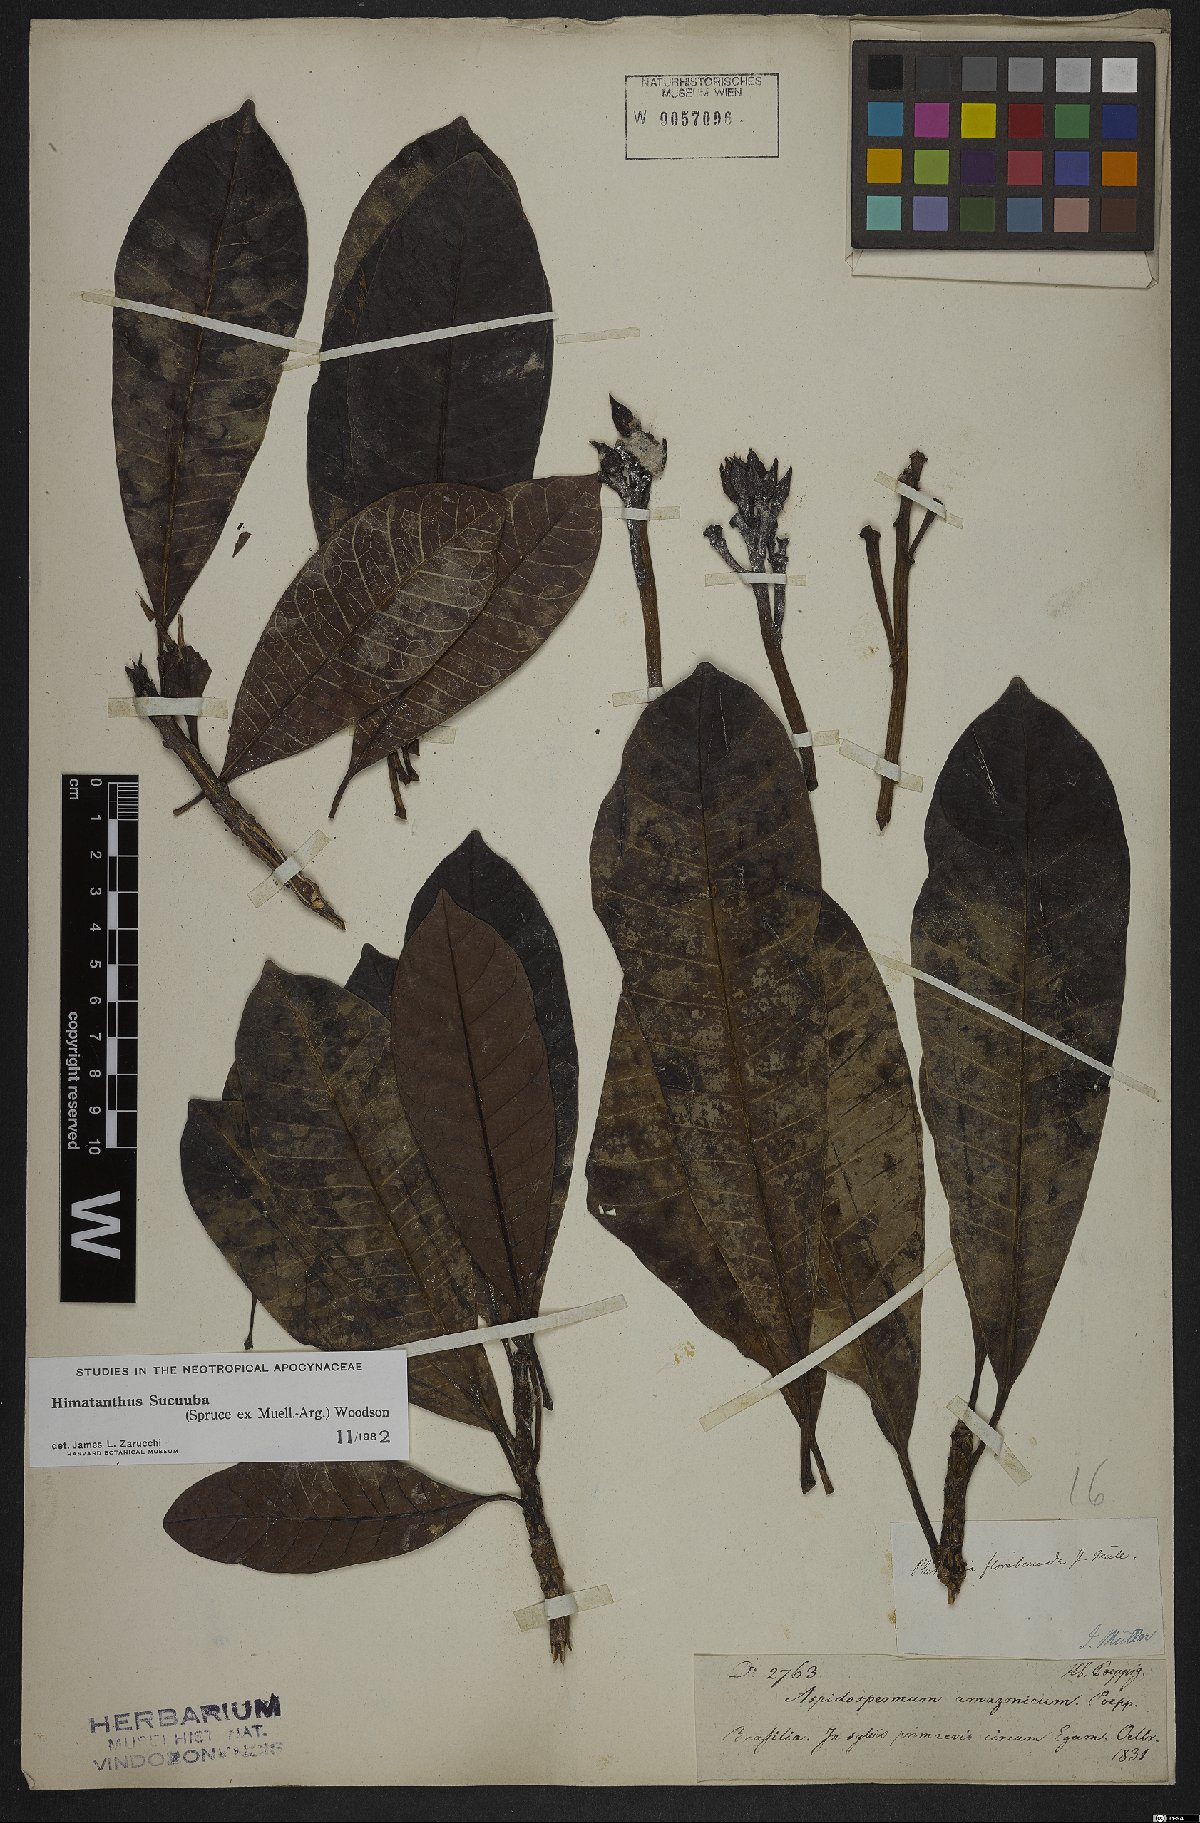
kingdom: Plantae
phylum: Tracheophyta
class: Magnoliopsida
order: Gentianales
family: Apocynaceae
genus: Himatanthus
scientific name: Himatanthus articulatus
